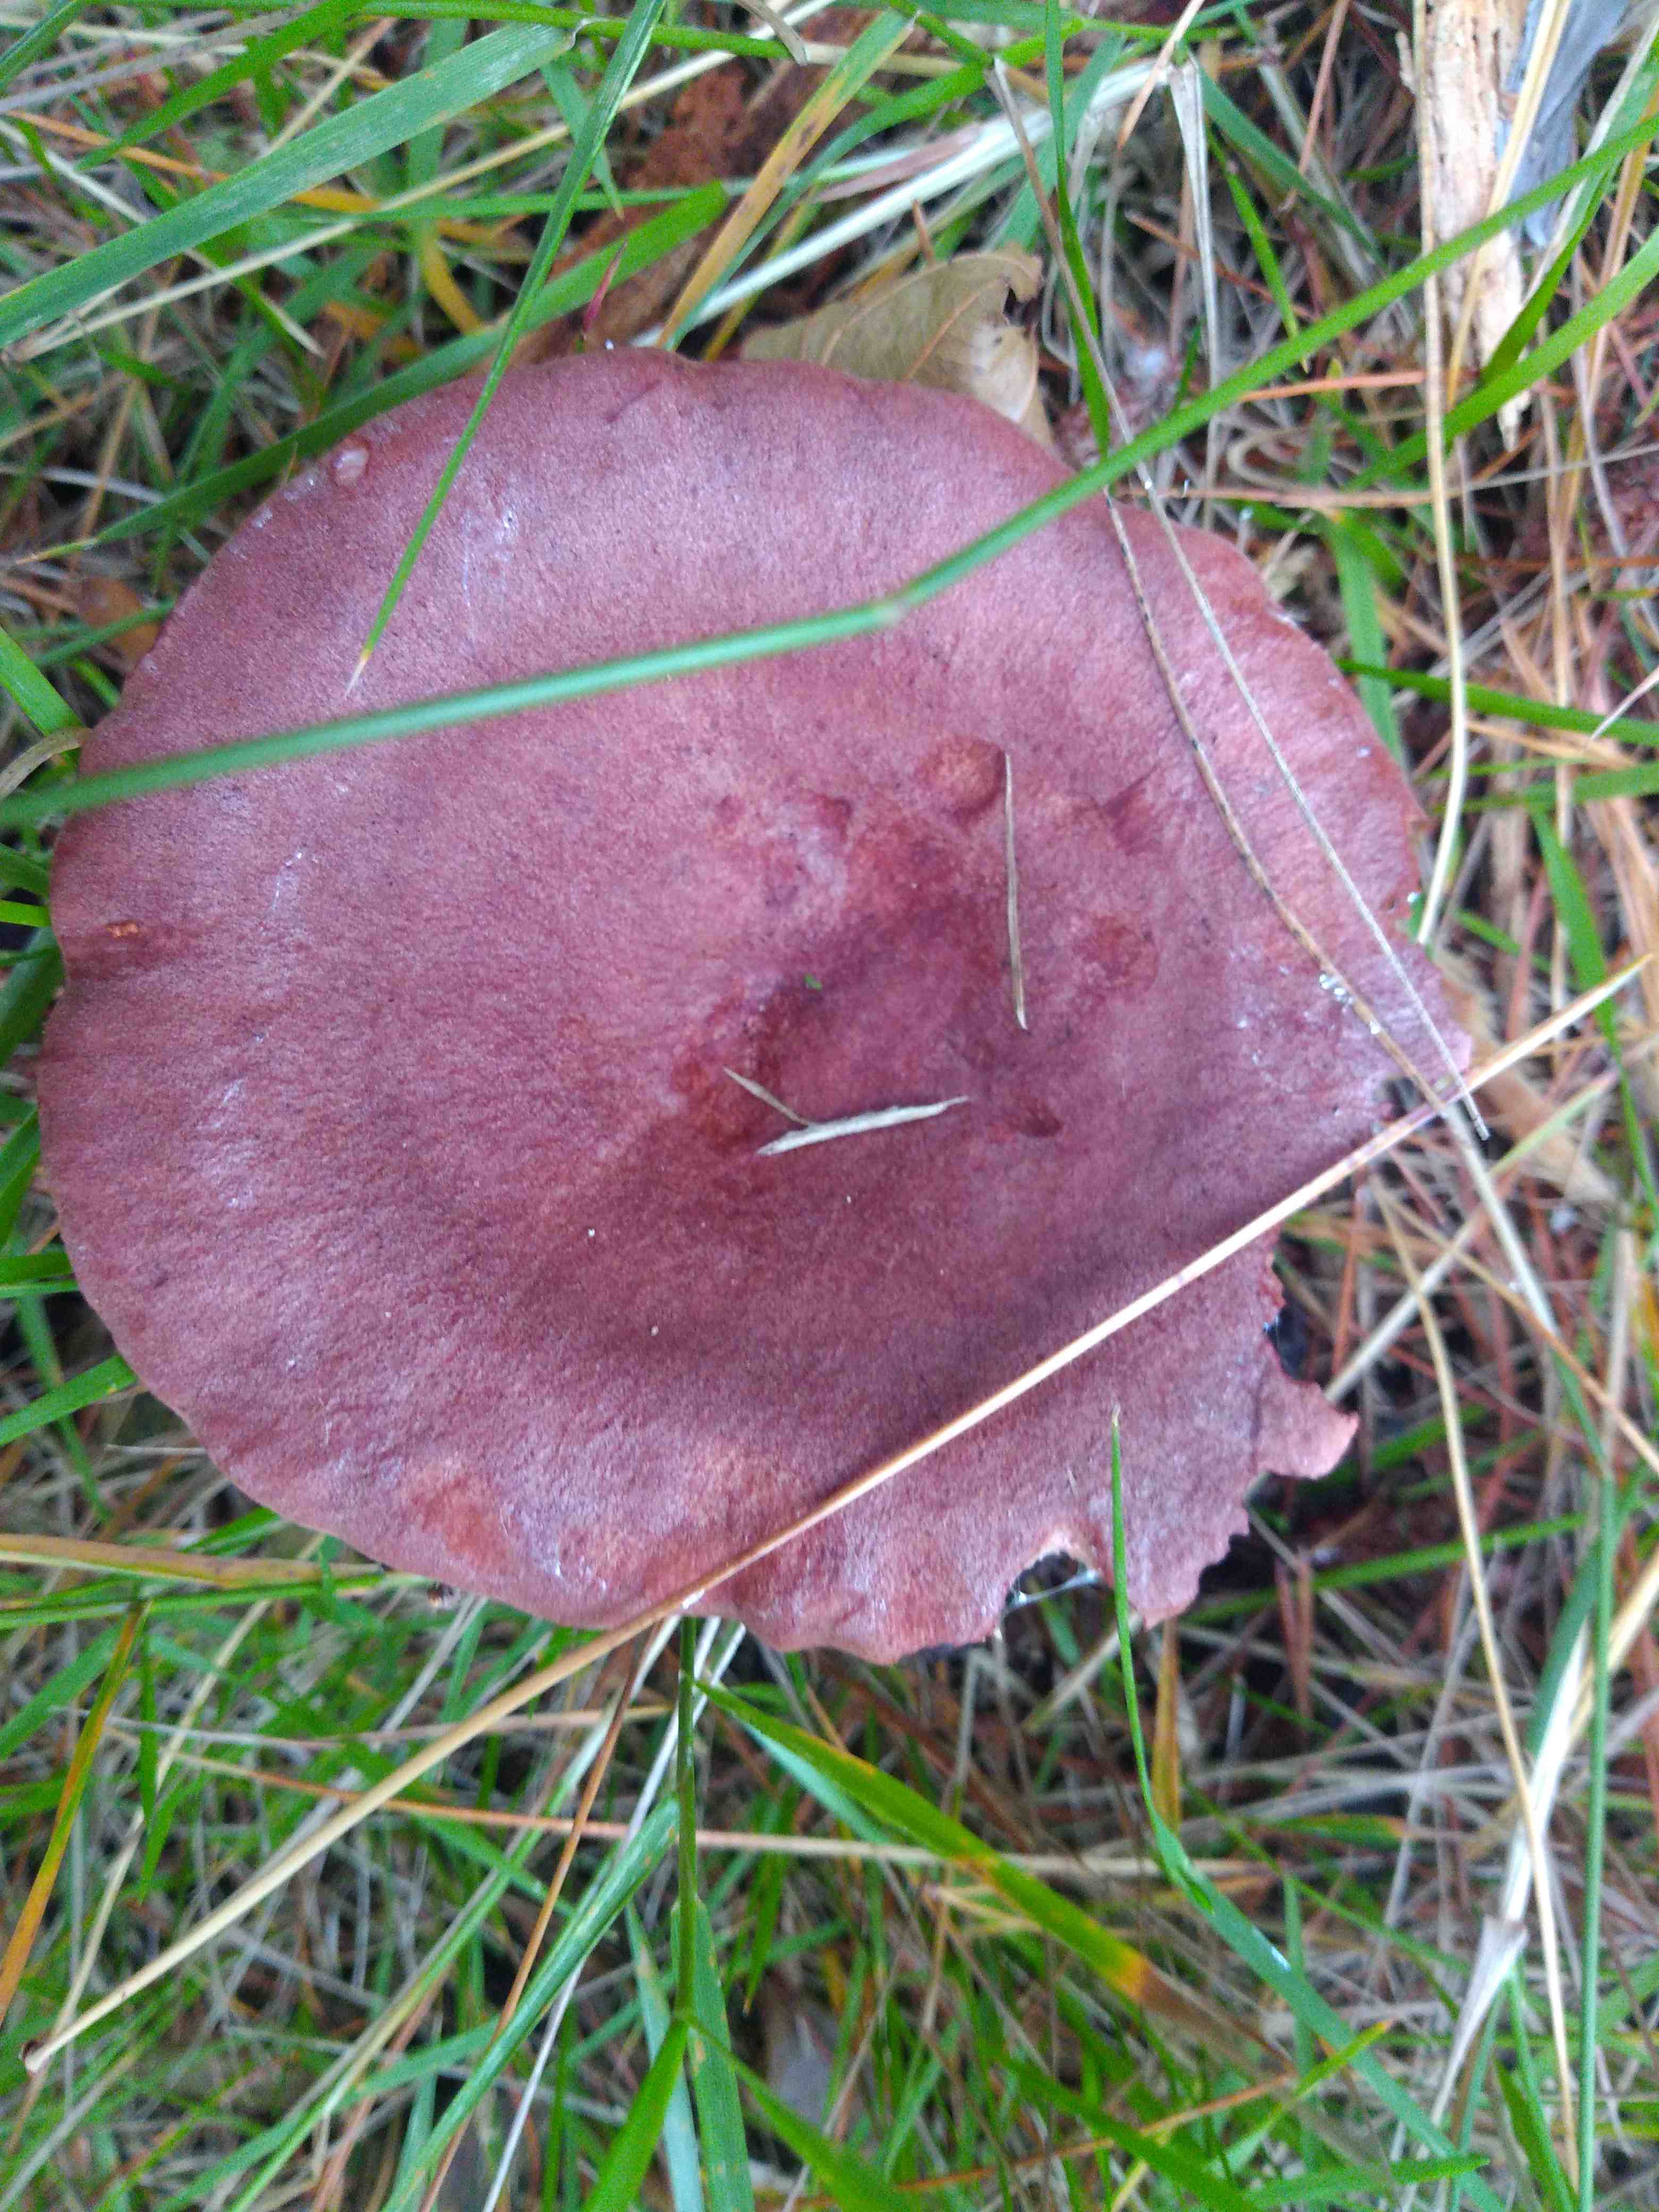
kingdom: Fungi
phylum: Basidiomycota
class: Agaricomycetes
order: Russulales
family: Russulaceae
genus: Lactarius
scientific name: Lactarius rufus
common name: rødbrun mælkehat
